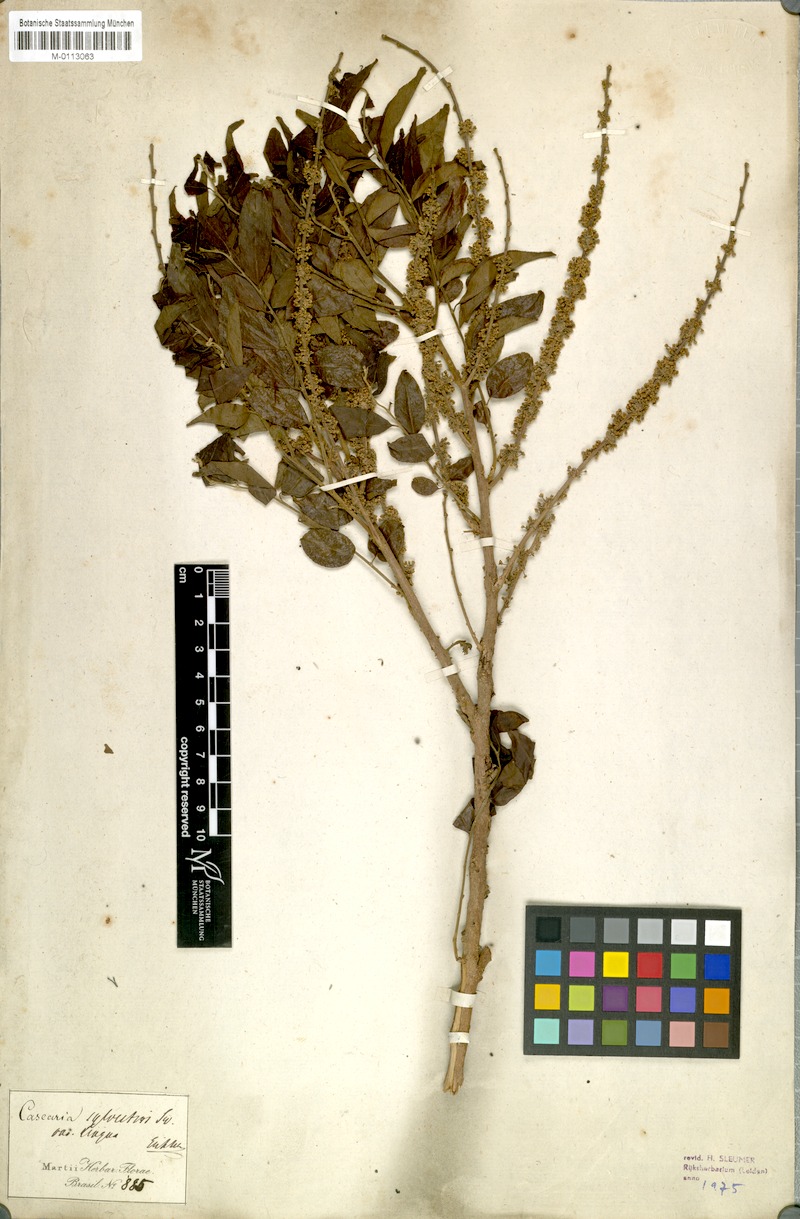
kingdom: Plantae
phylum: Tracheophyta
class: Magnoliopsida
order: Malpighiales
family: Salicaceae
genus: Casearia
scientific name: Casearia sylvestris
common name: Wild sage
